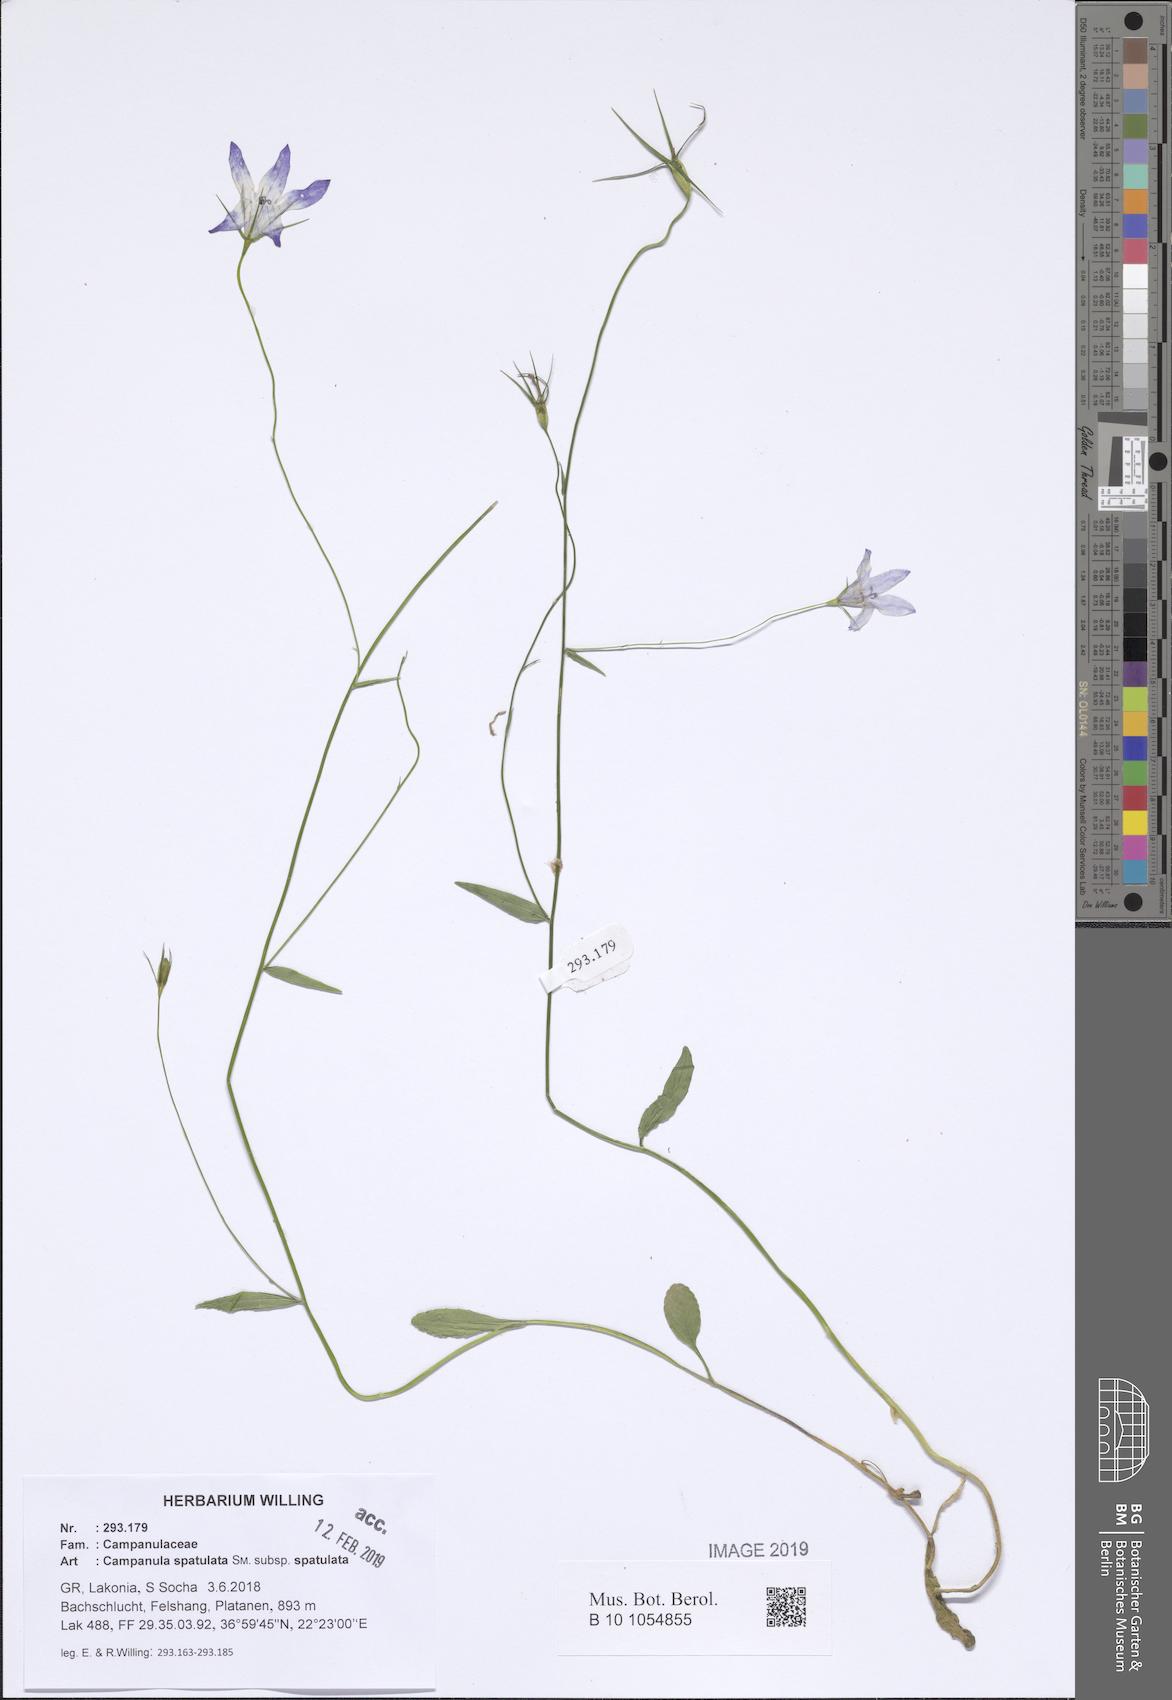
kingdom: Plantae
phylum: Tracheophyta
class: Magnoliopsida
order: Asterales
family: Campanulaceae
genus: Campanula
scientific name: Campanula spatulata
